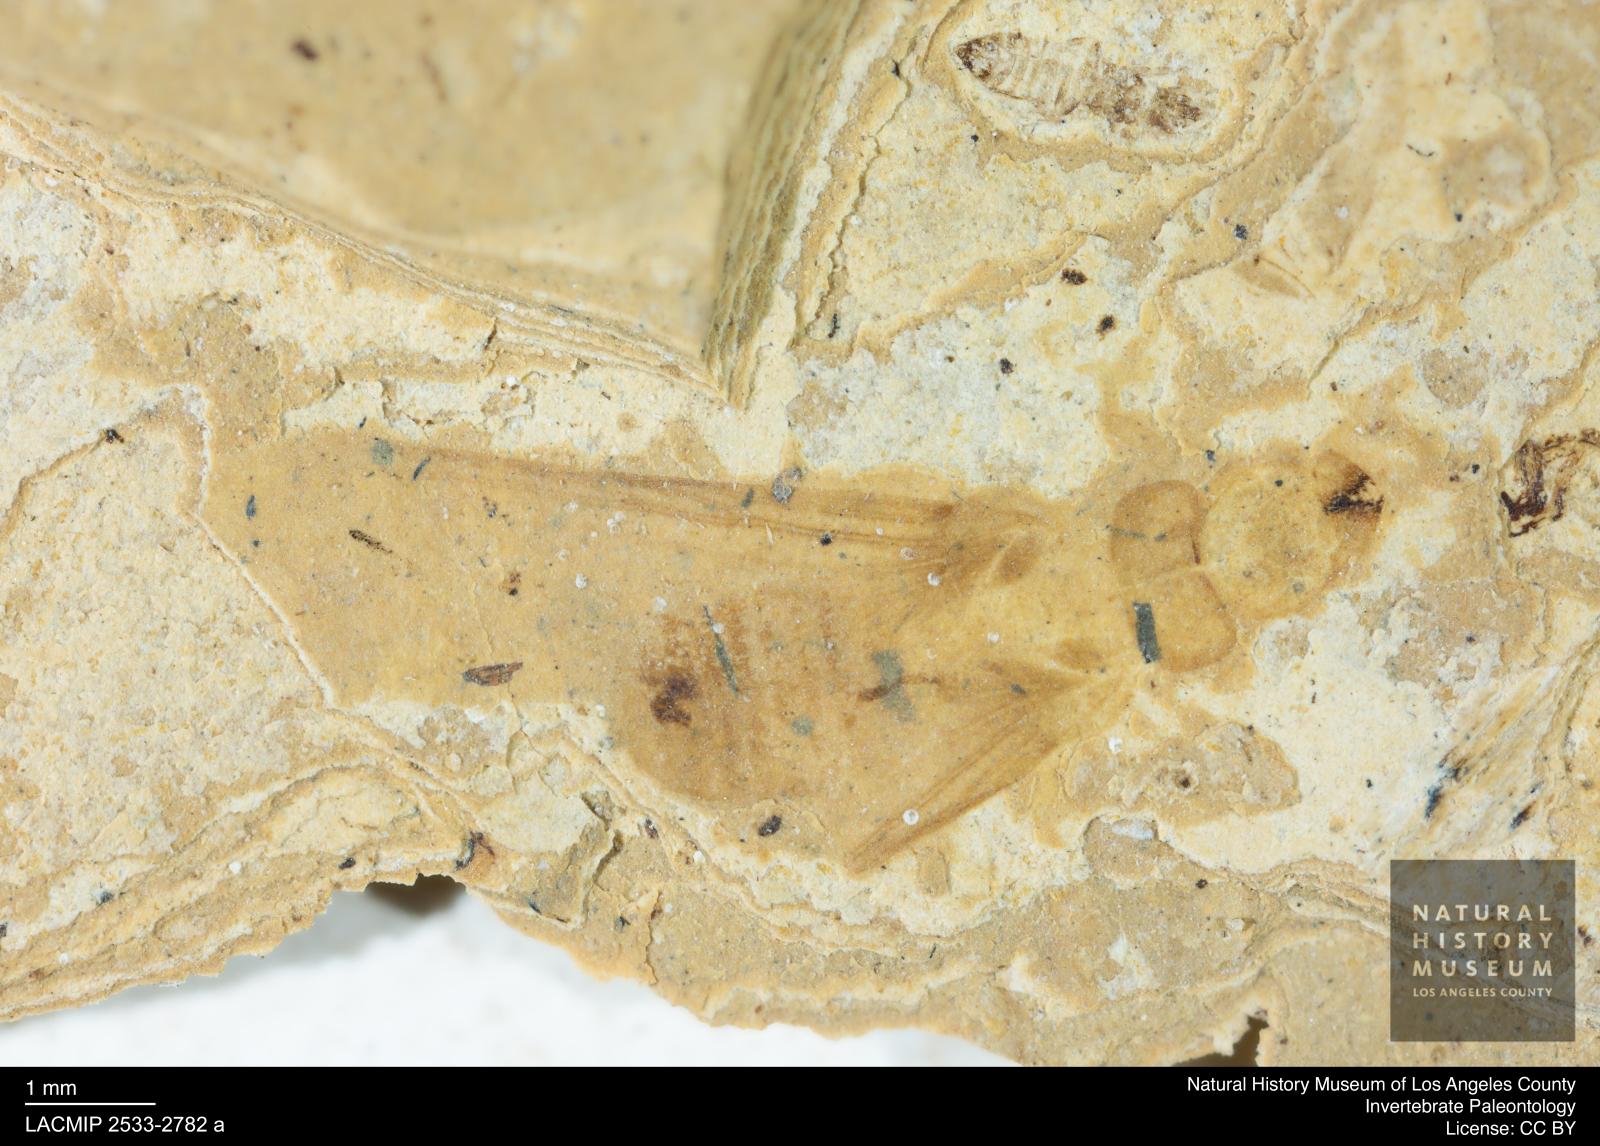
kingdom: Animalia
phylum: Arthropoda
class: Insecta
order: Blattodea
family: Kalotermitidae
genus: Kalotermes
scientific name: Kalotermes rhenanus
